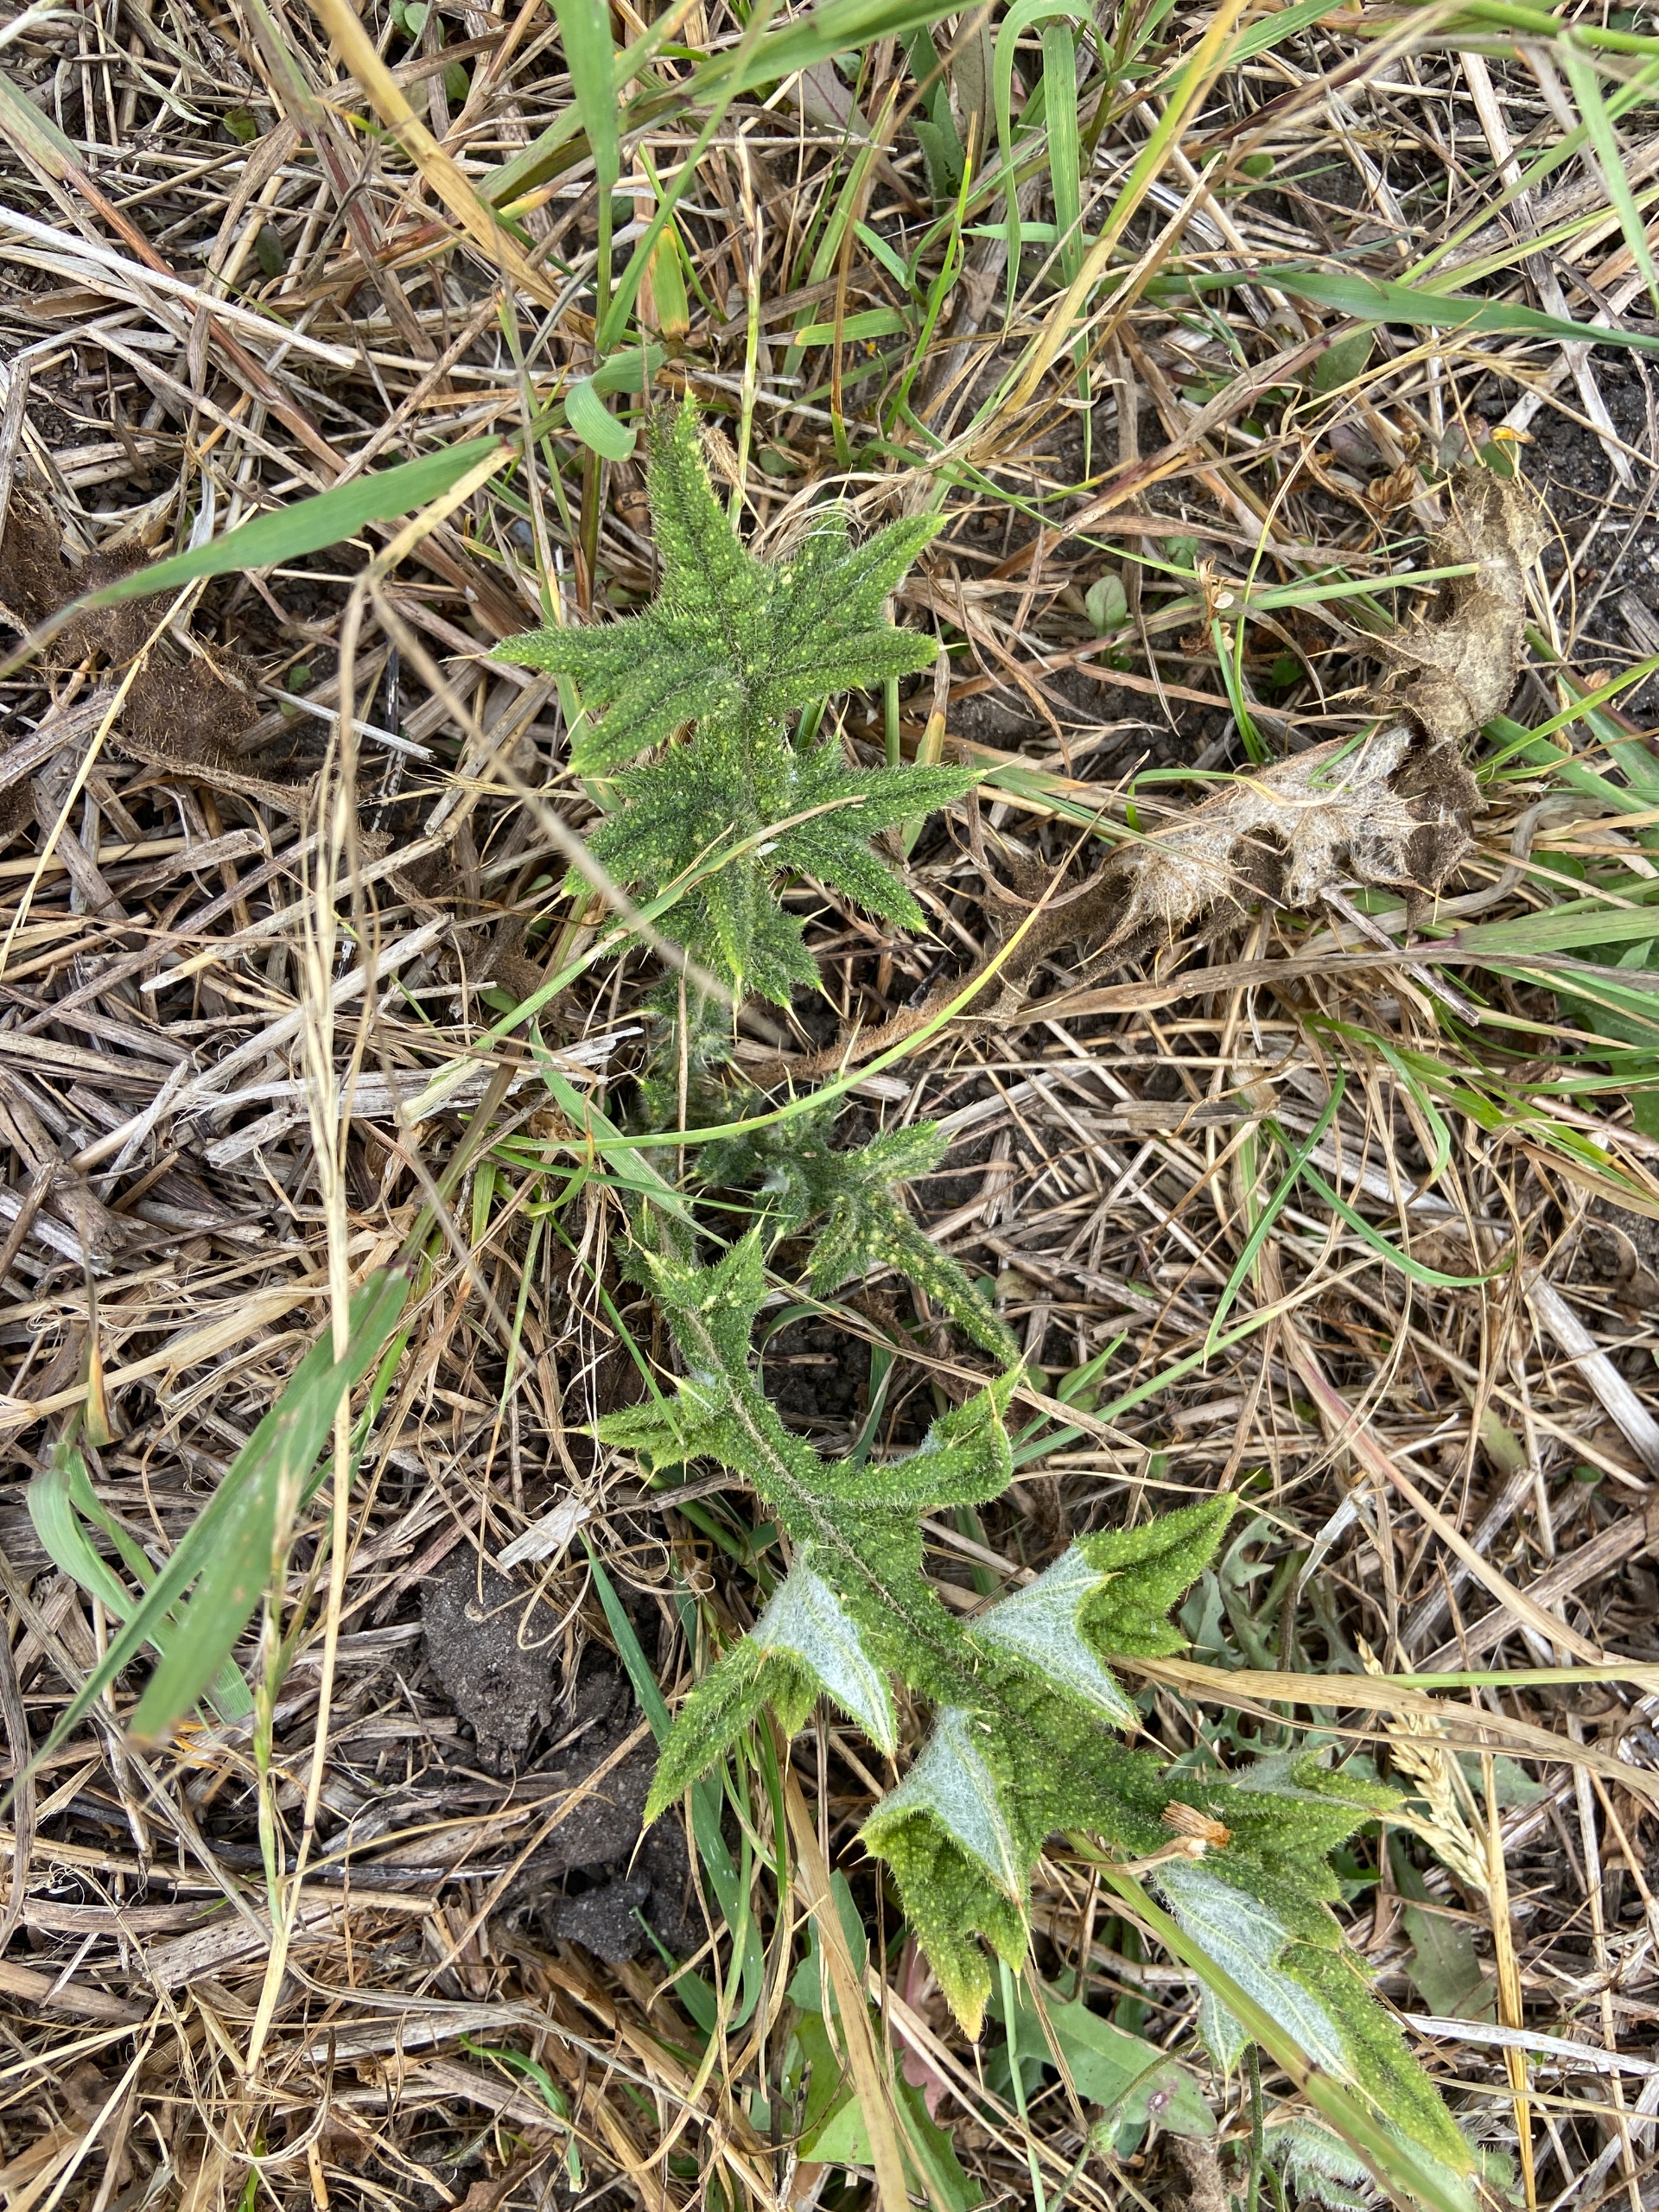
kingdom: Plantae
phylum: Tracheophyta
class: Magnoliopsida
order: Asterales
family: Asteraceae
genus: Cirsium
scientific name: Cirsium vulgare
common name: Horse-tidsel
